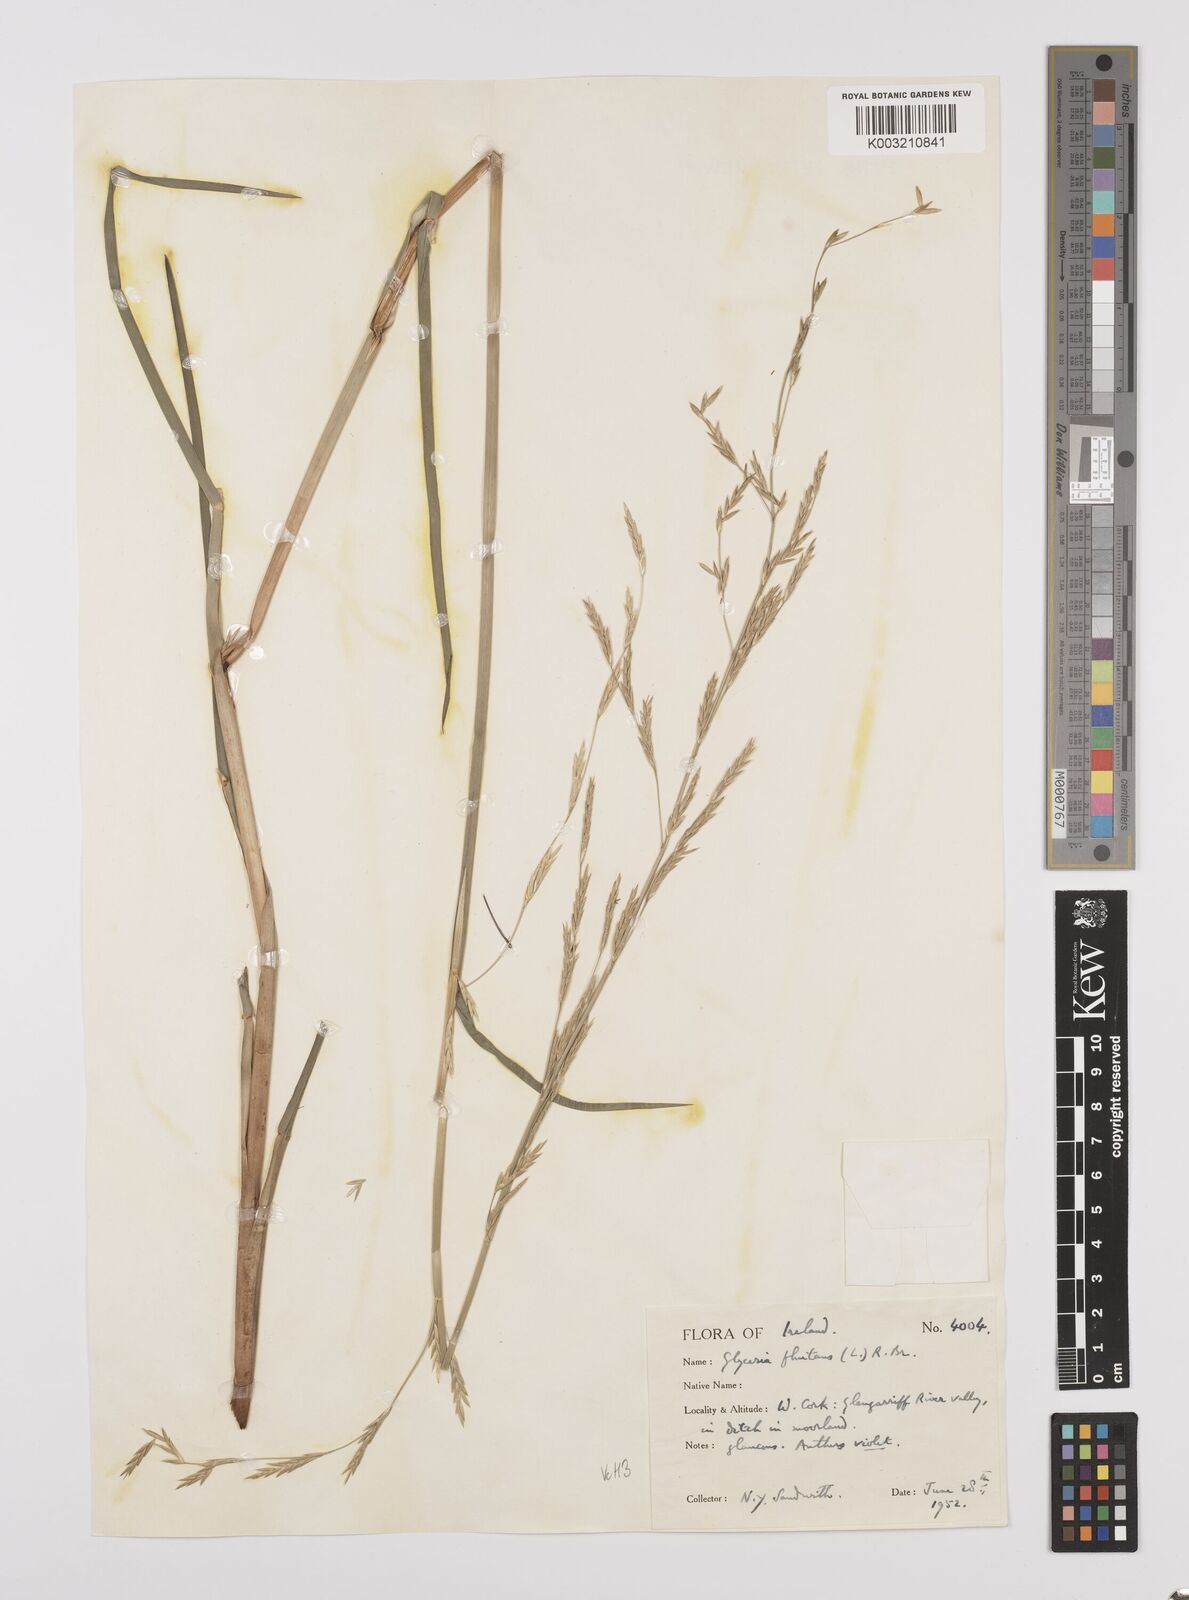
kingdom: Plantae
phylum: Tracheophyta
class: Liliopsida
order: Poales
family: Poaceae
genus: Glyceria
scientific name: Glyceria fluitans
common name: Floating sweet-grass
